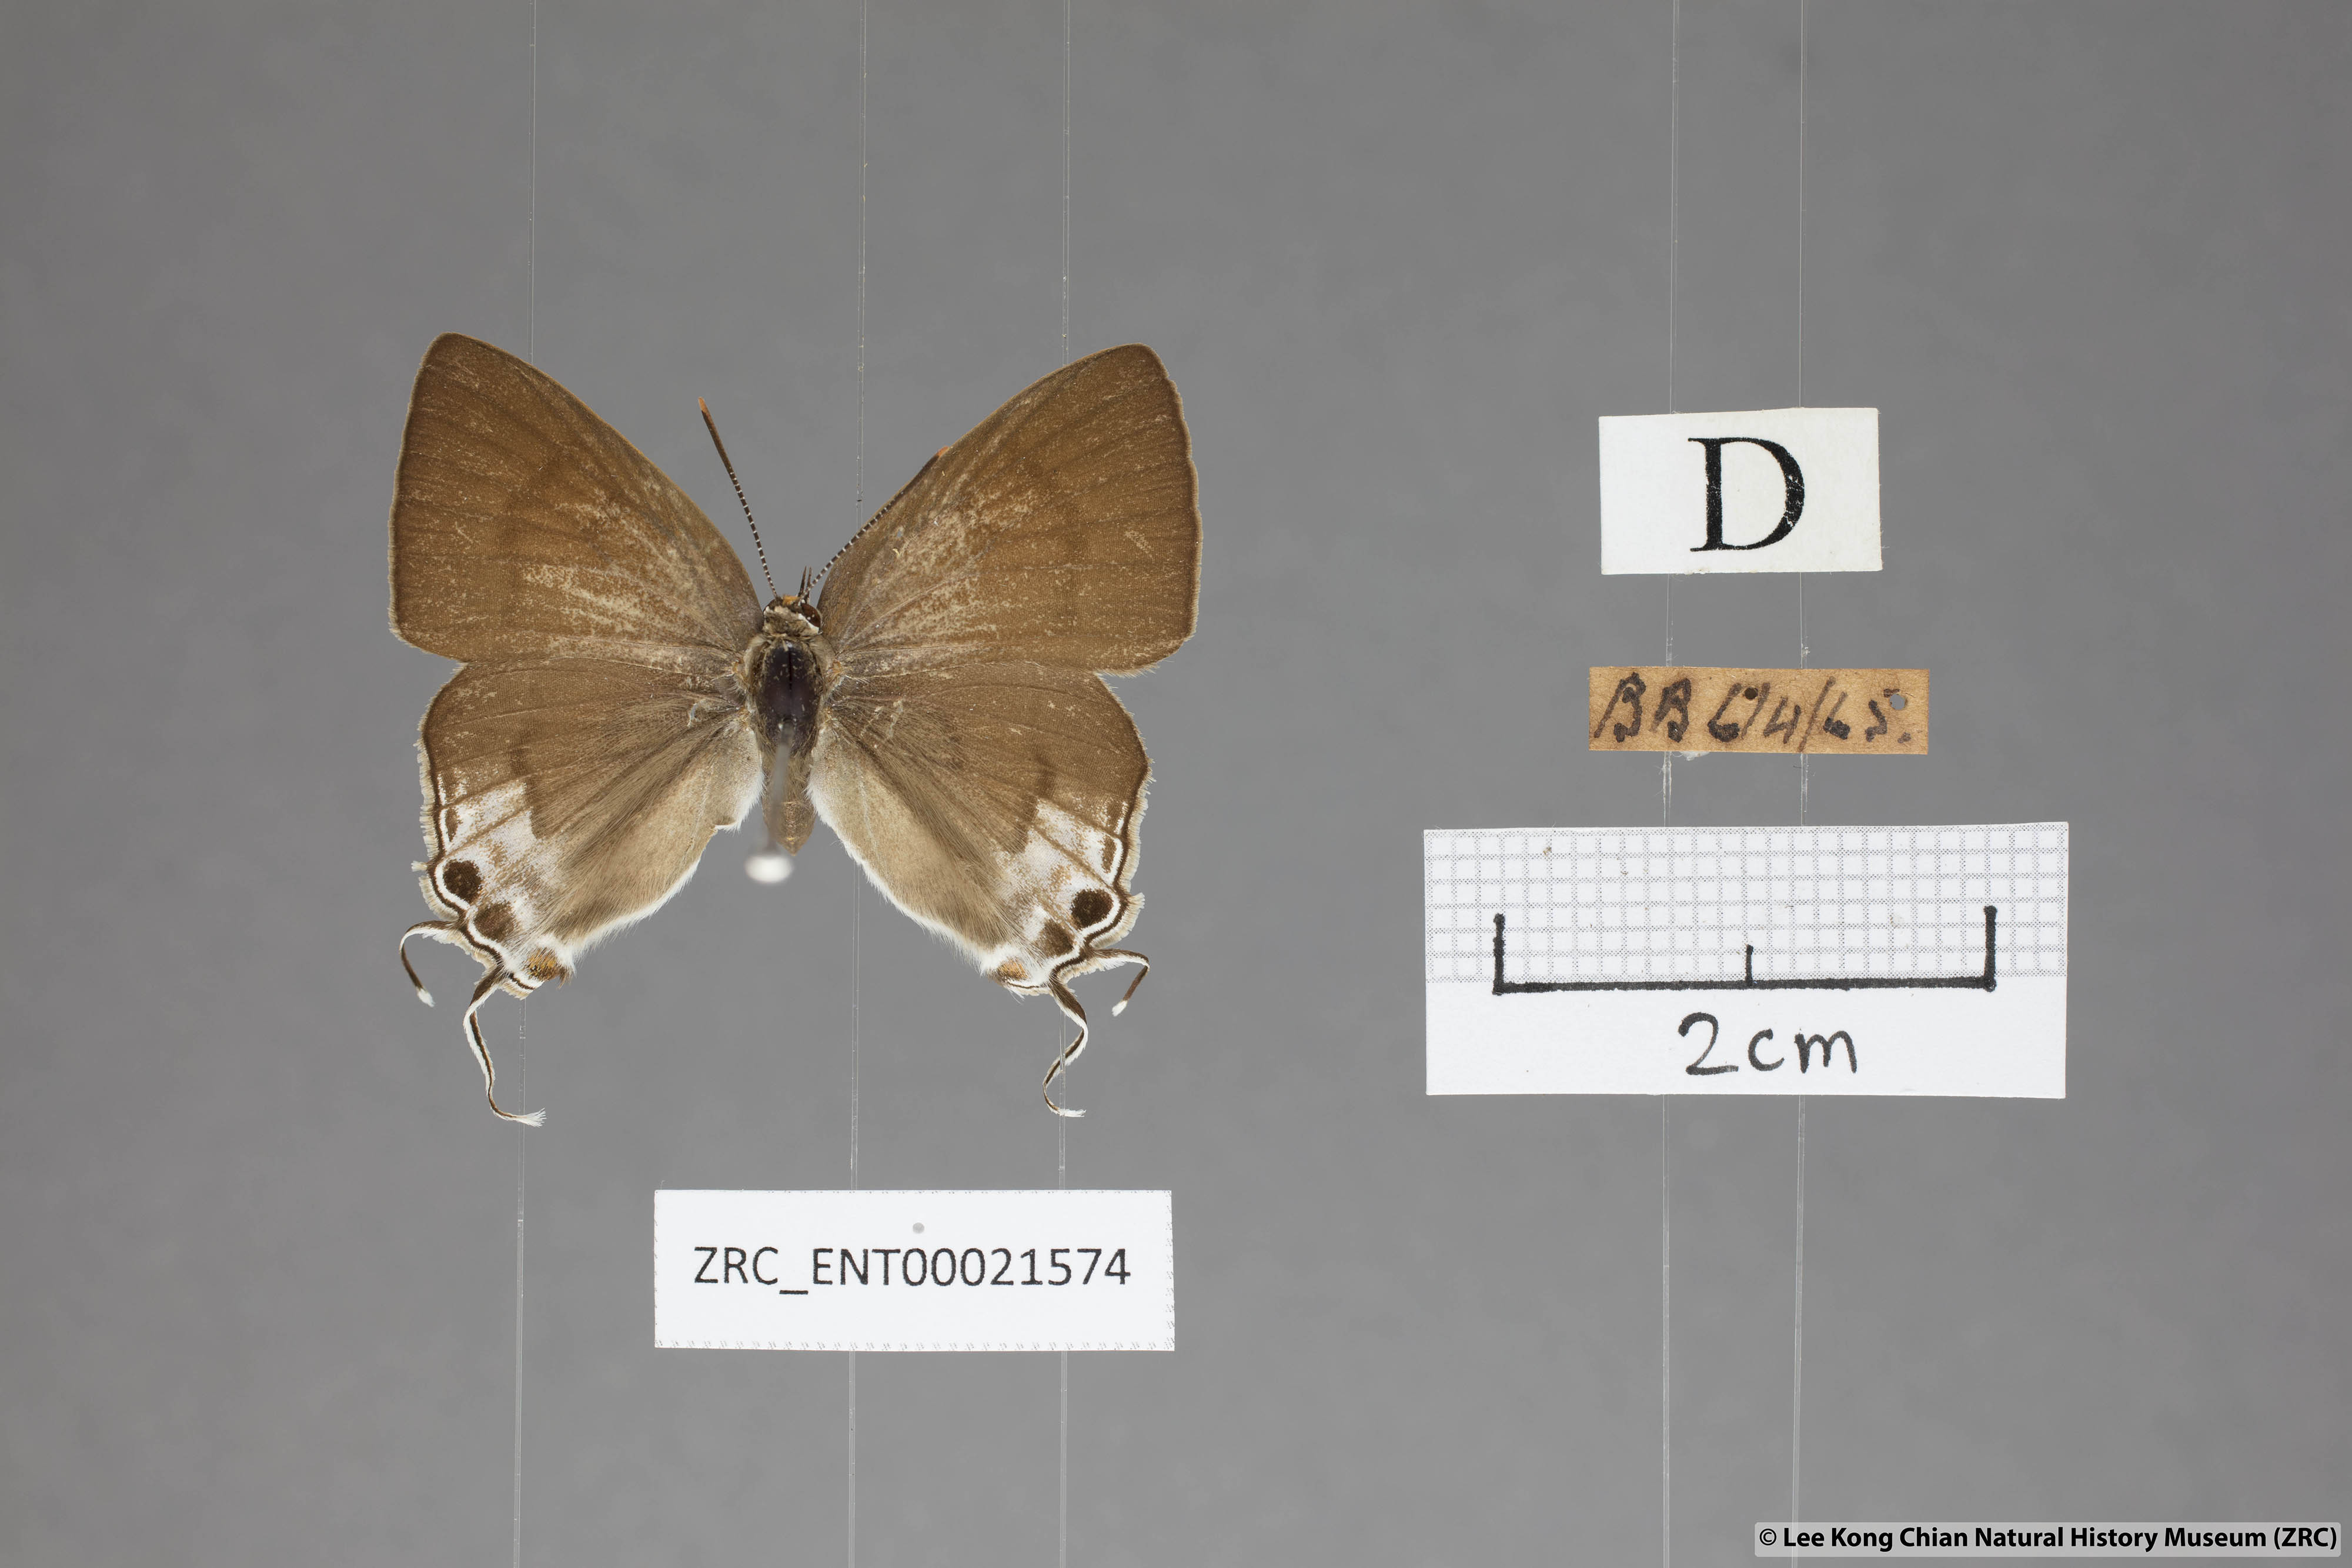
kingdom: Animalia
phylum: Arthropoda
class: Insecta
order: Lepidoptera
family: Lycaenidae
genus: Hypolycaena
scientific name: Hypolycaena erylus
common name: Common tit
